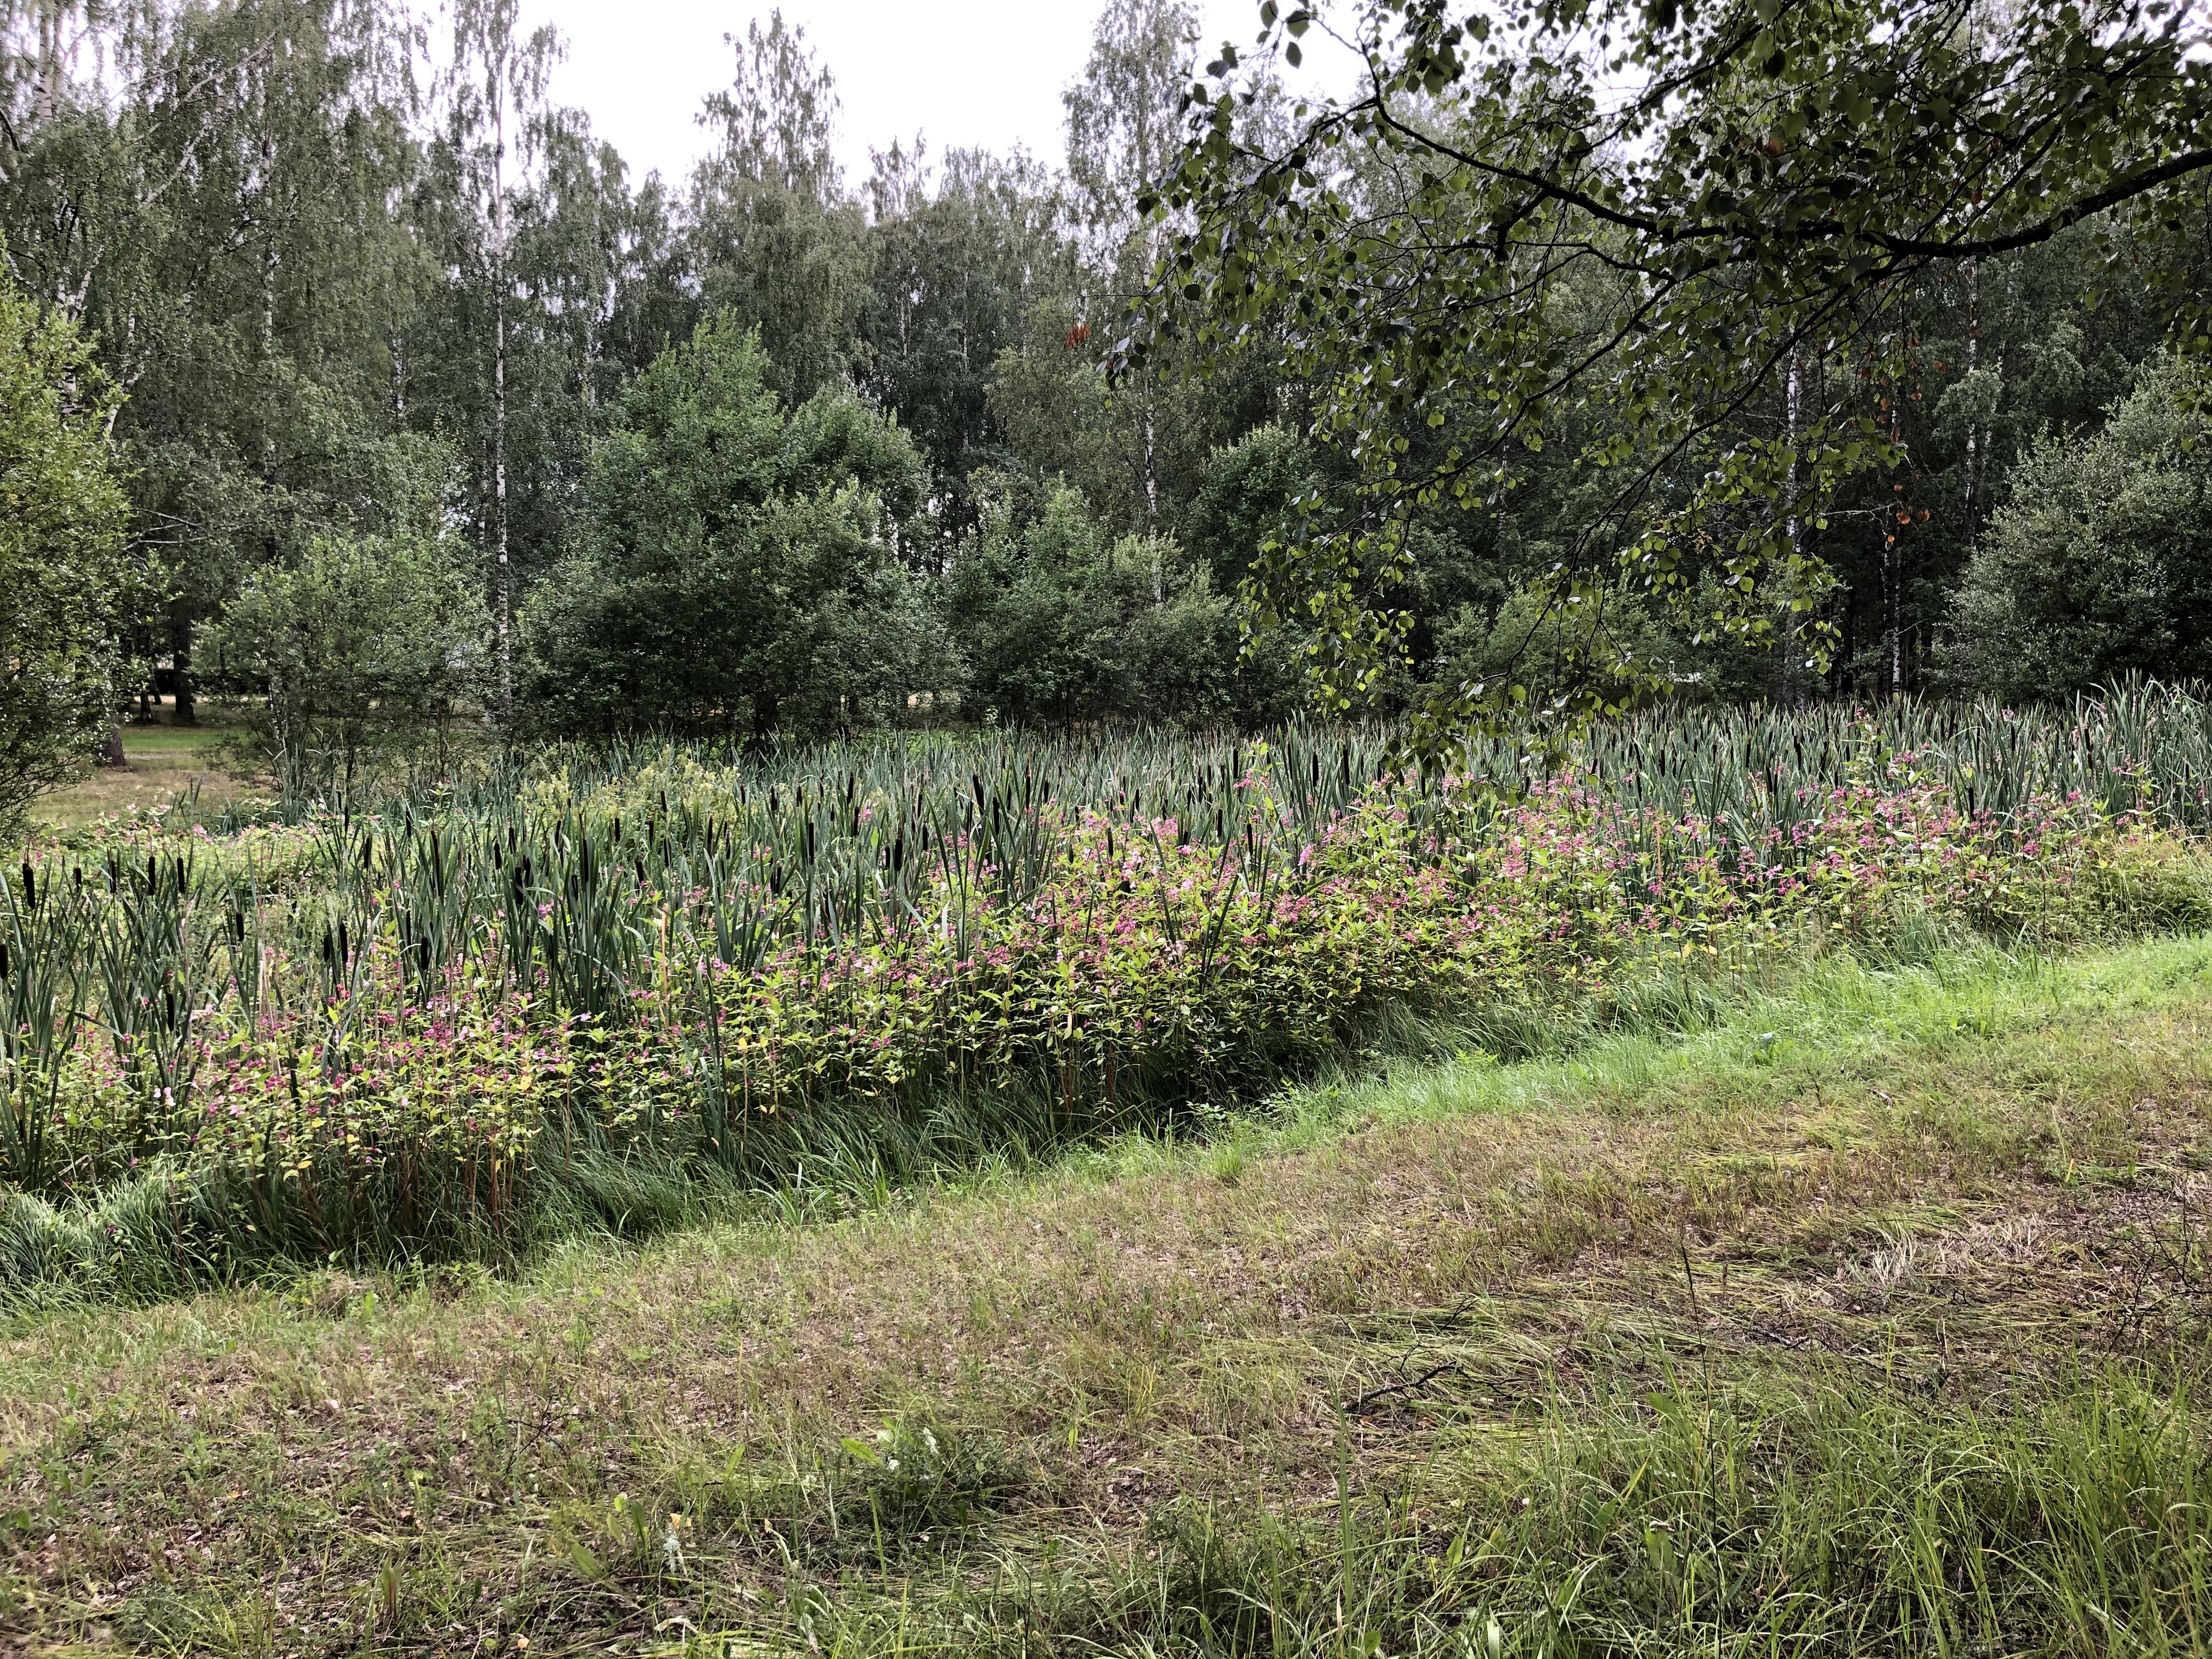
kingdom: Plantae
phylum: Tracheophyta
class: Magnoliopsida
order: Ericales
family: Balsaminaceae
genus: Impatiens
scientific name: Impatiens glandulifera
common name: Himalayan balsam
